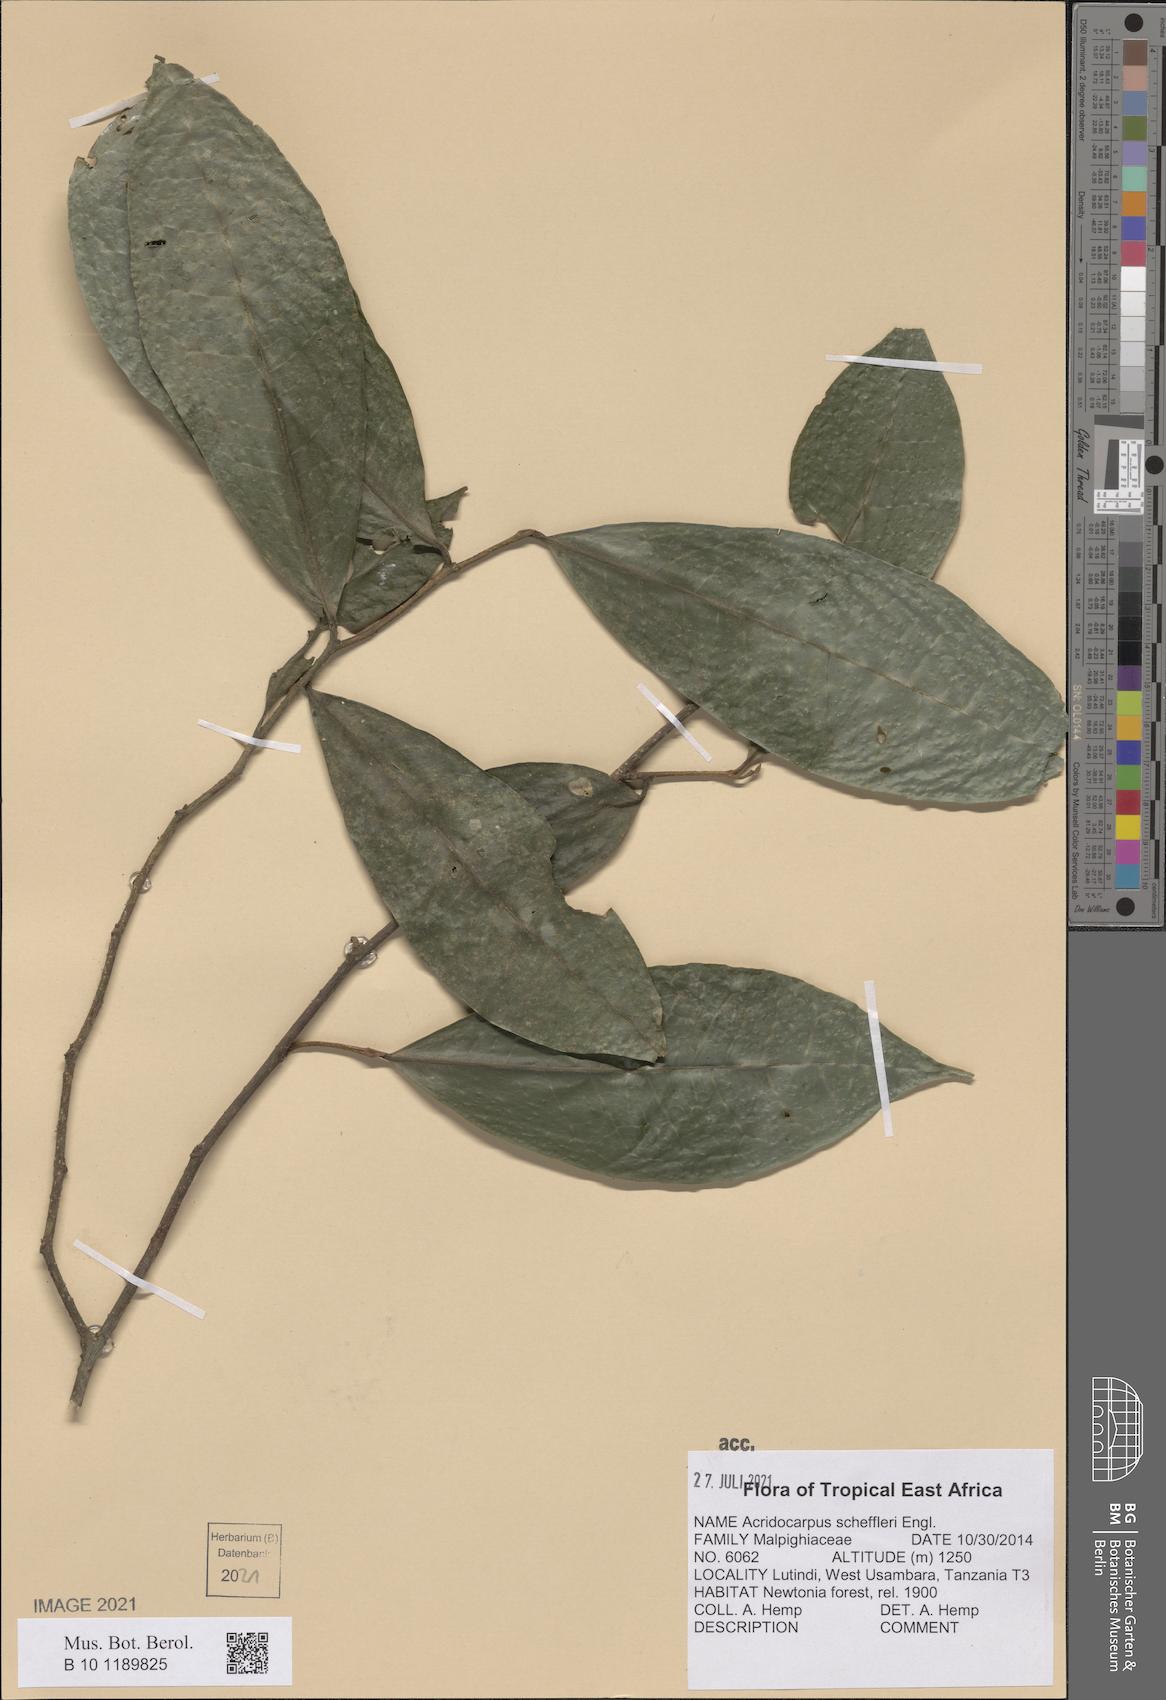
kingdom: Plantae
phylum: Tracheophyta
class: Magnoliopsida
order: Malpighiales
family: Malpighiaceae
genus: Acridocarpus
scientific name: Acridocarpus ugandensis
